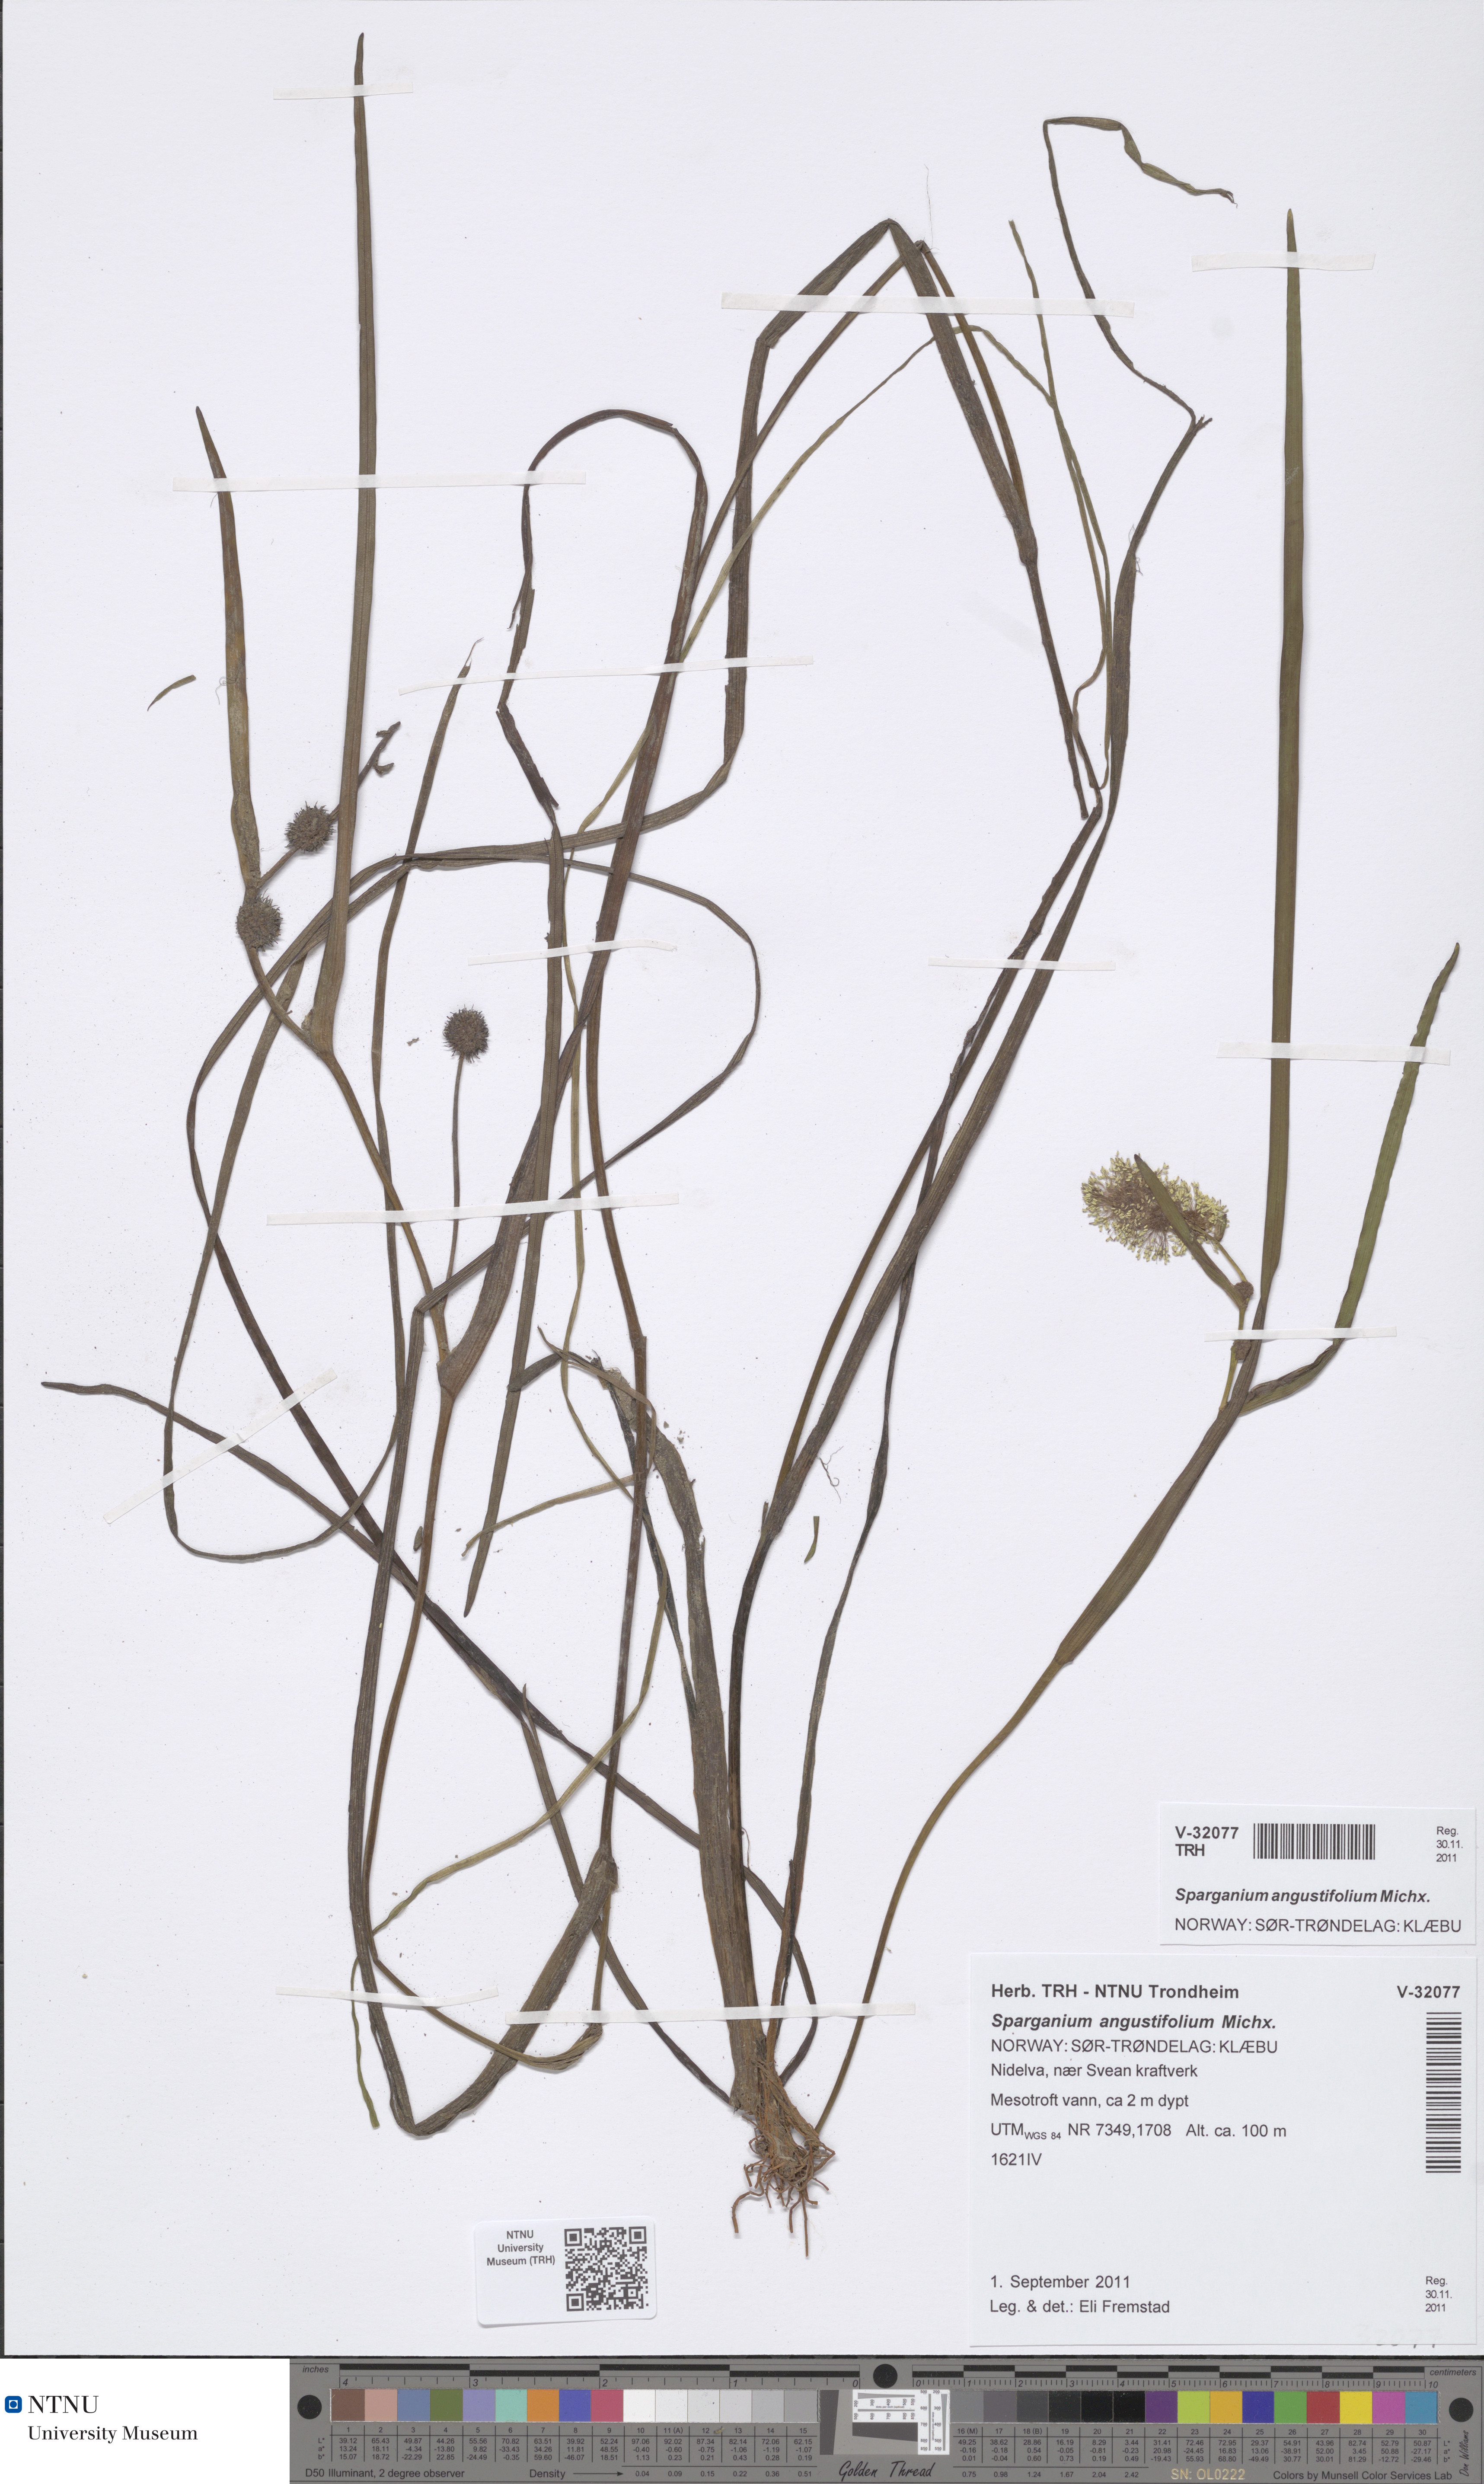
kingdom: Plantae
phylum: Tracheophyta
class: Liliopsida
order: Poales
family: Typhaceae
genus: Sparganium
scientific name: Sparganium angustifolium
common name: Floating bur-reed
